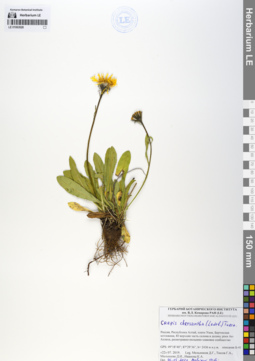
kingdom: Plantae
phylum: Tracheophyta
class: Magnoliopsida
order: Asterales
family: Asteraceae
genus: Crepis
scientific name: Crepis chrysantha
